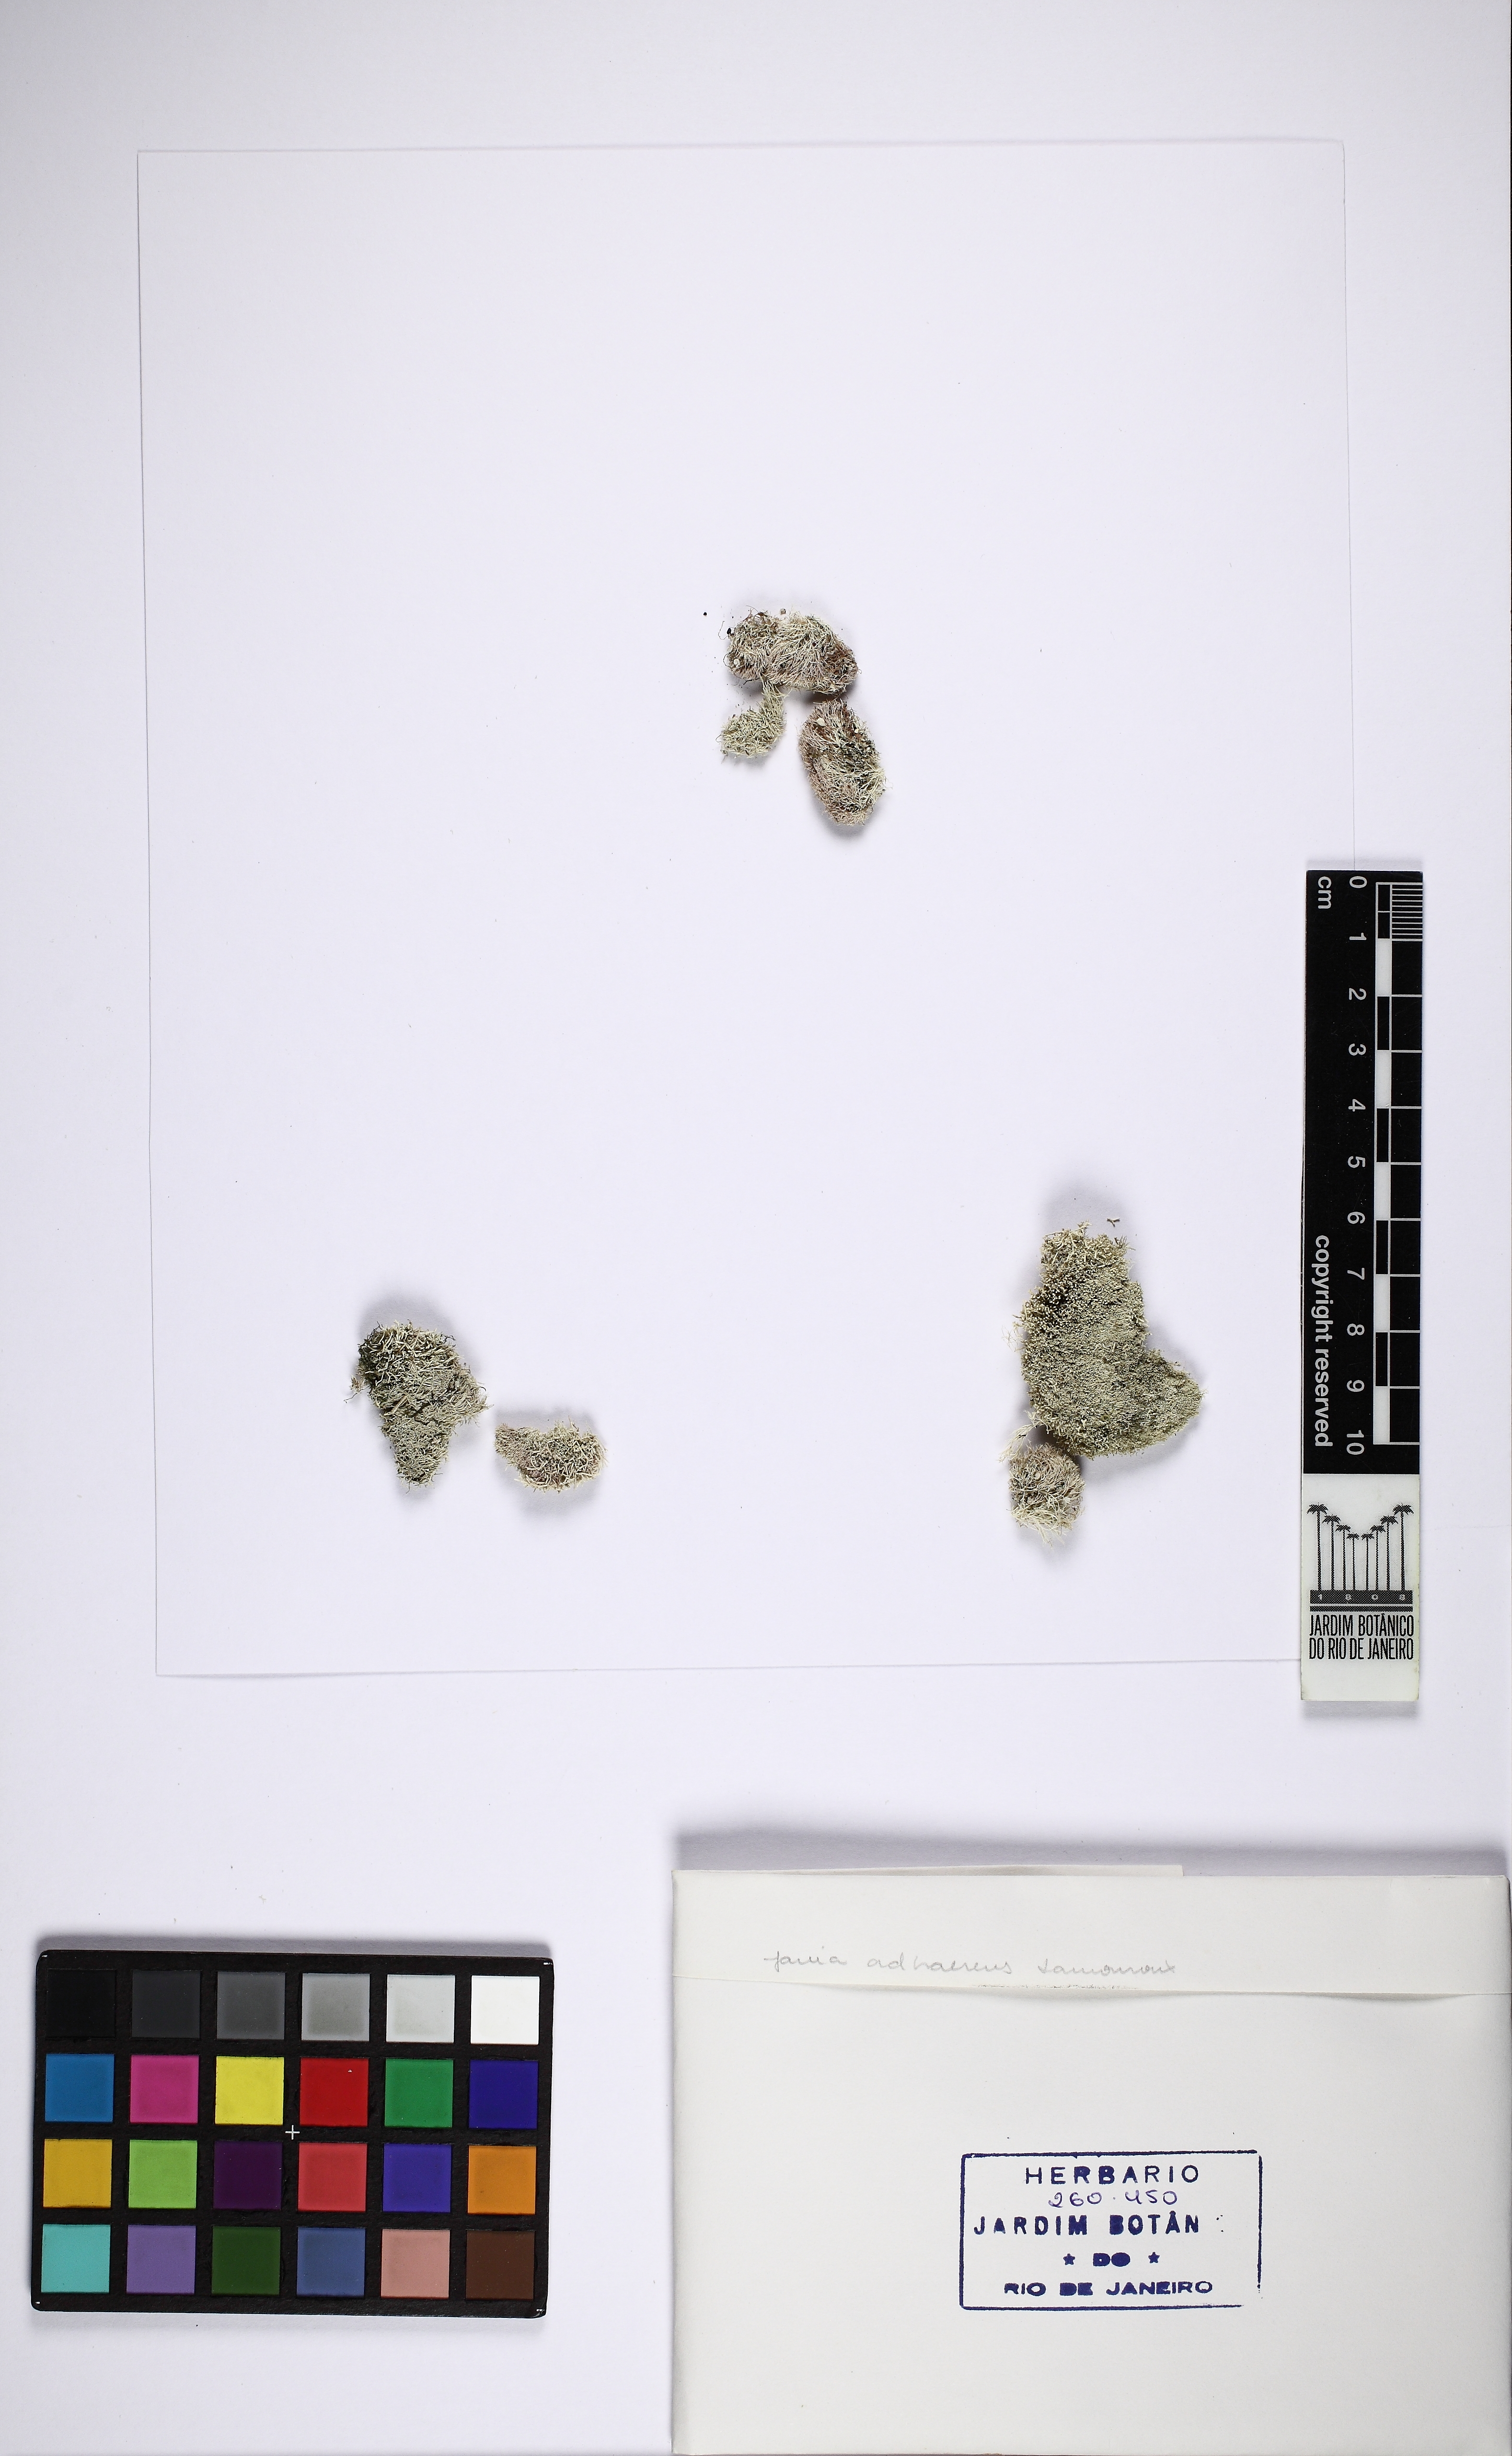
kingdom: Plantae
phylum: Rhodophyta
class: Florideophyceae
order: Corallinales
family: Corallinaceae
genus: Jania
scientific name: Jania adhaerens
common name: Pink segmented algae
